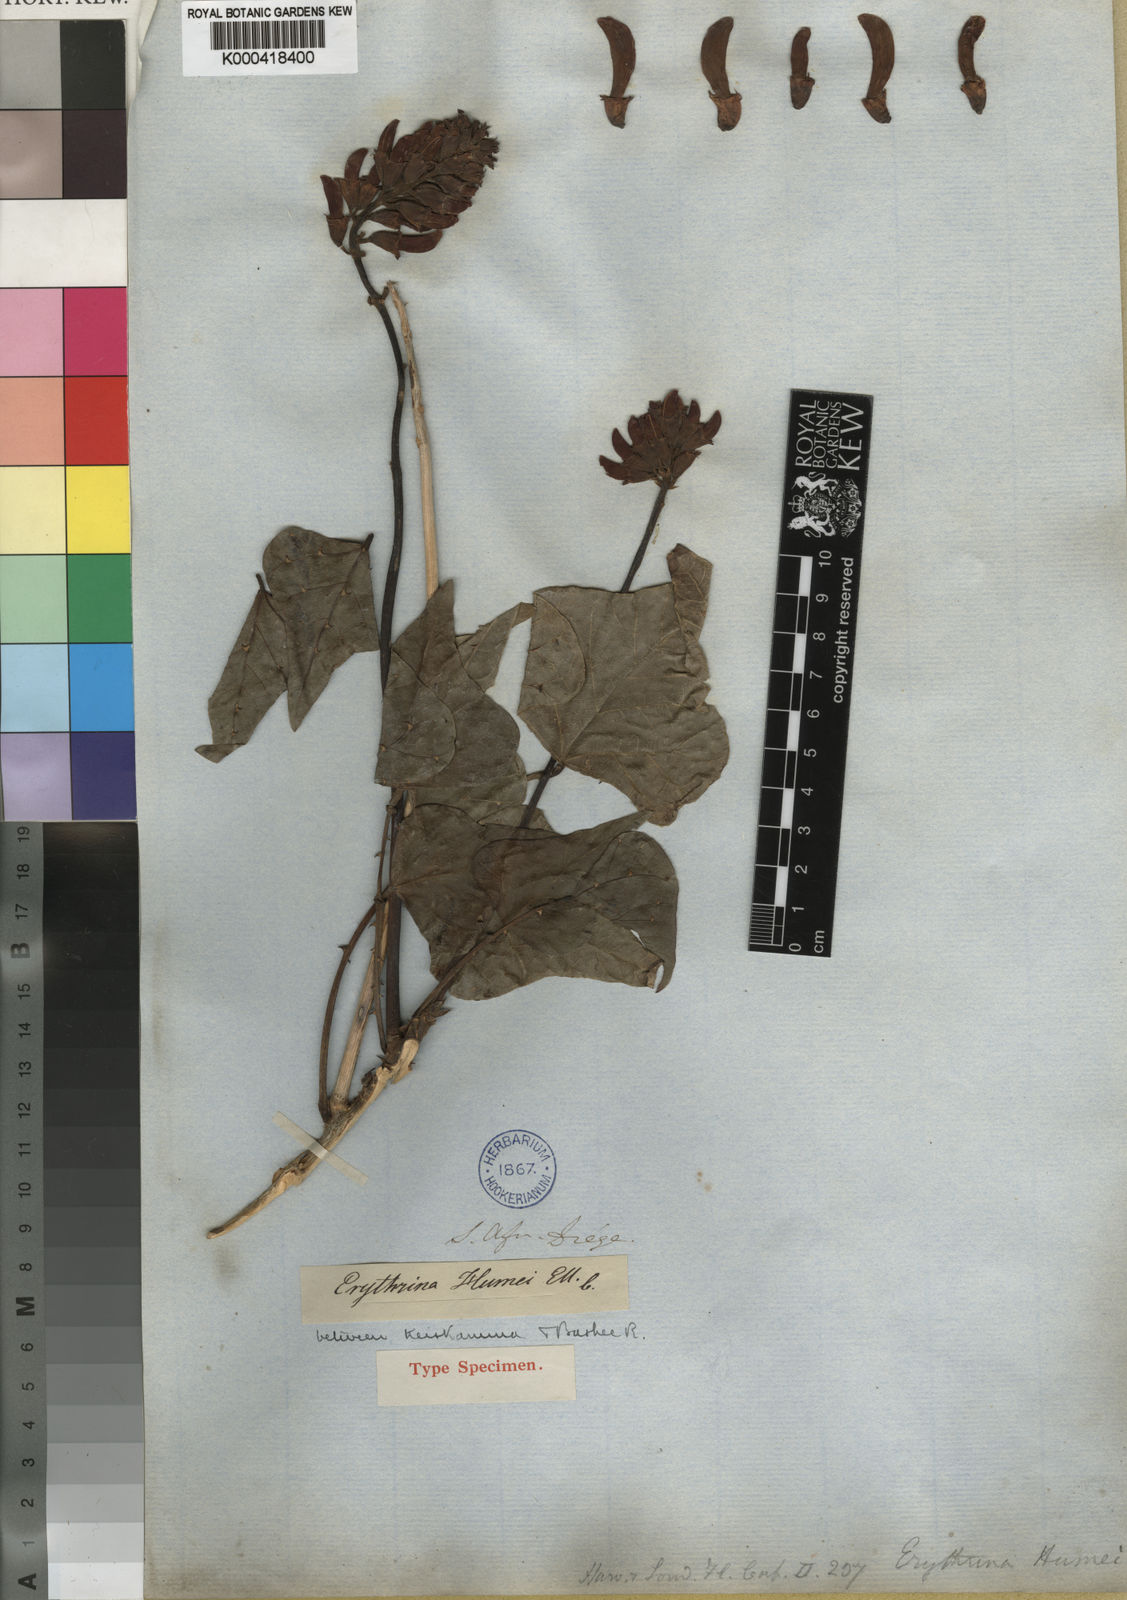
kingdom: Plantae
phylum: Tracheophyta
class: Magnoliopsida
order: Fabales
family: Fabaceae
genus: Erythrina
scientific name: Erythrina humeana
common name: Dwarf coral tree
